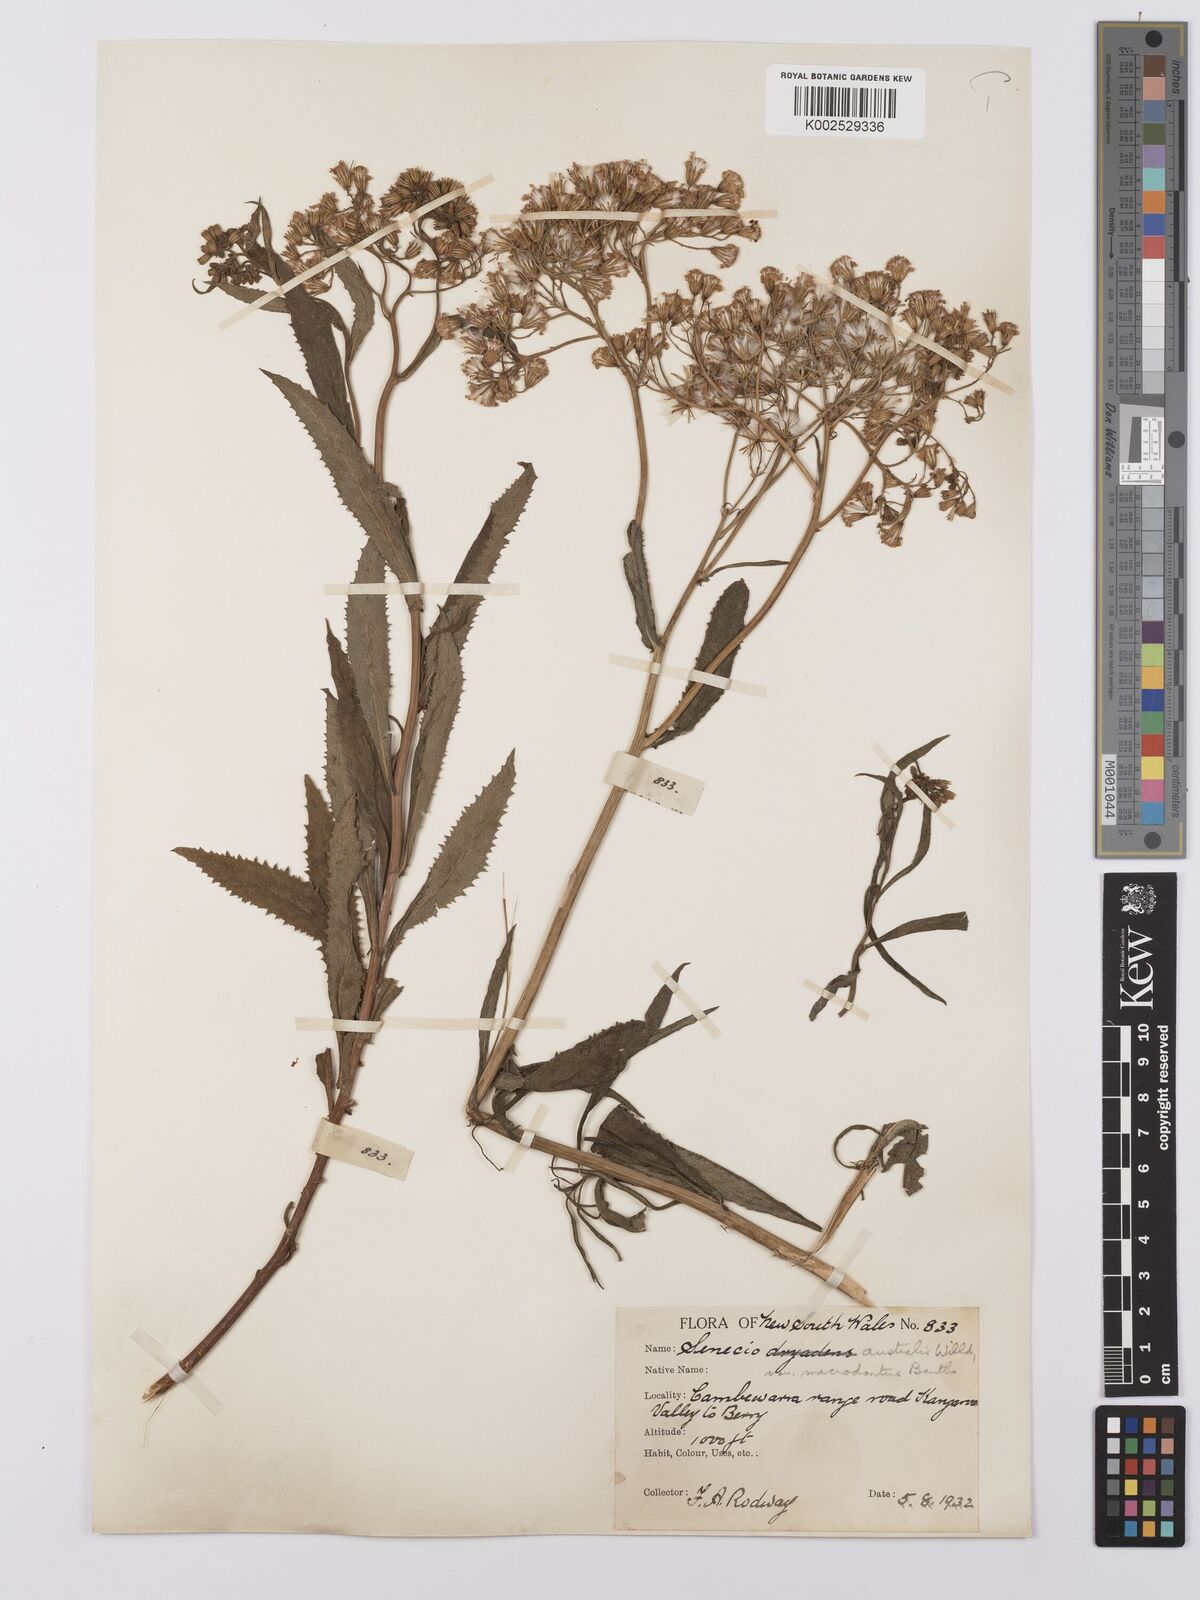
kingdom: Plantae
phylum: Tracheophyta
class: Magnoliopsida
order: Asterales
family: Asteraceae
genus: Senecio
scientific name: Senecio linearifolius
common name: Fireweed groundsel
